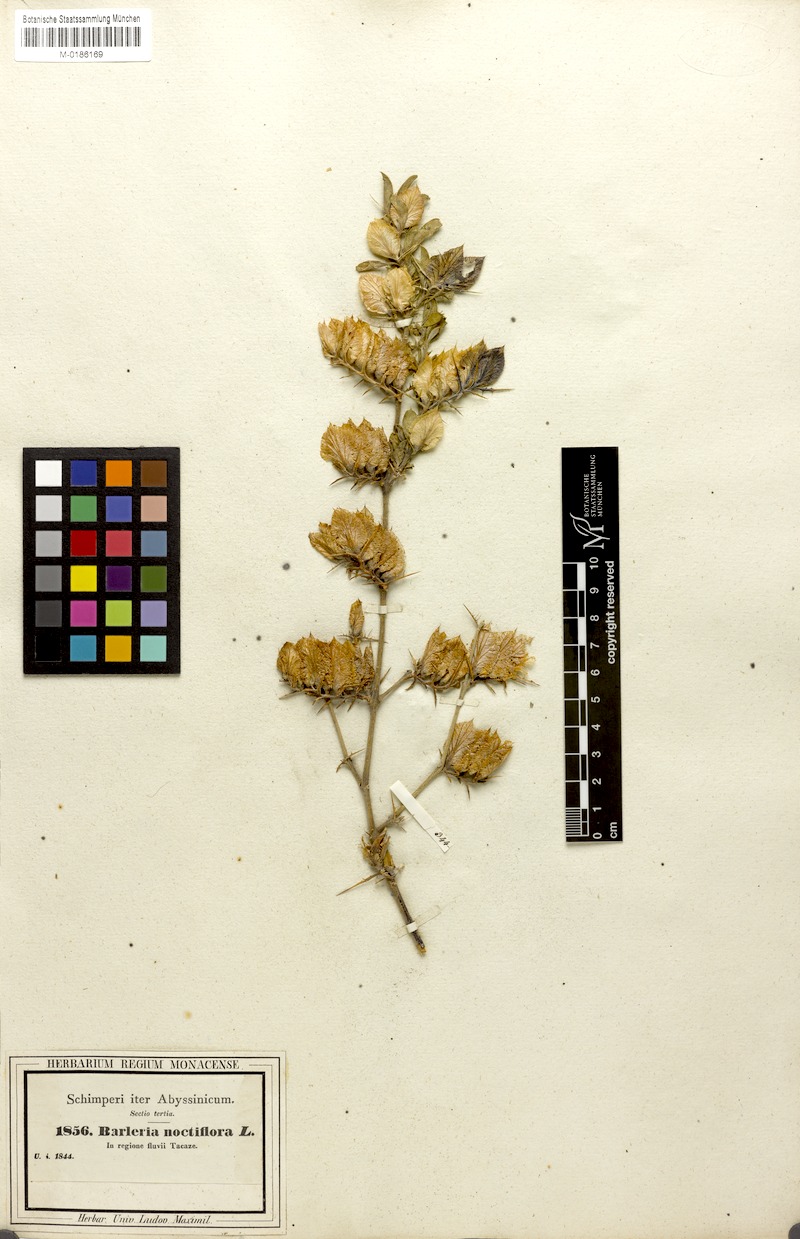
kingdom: Plantae
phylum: Tracheophyta
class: Magnoliopsida
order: Lamiales
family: Acanthaceae
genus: Barleria
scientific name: Barleria acanthoides
